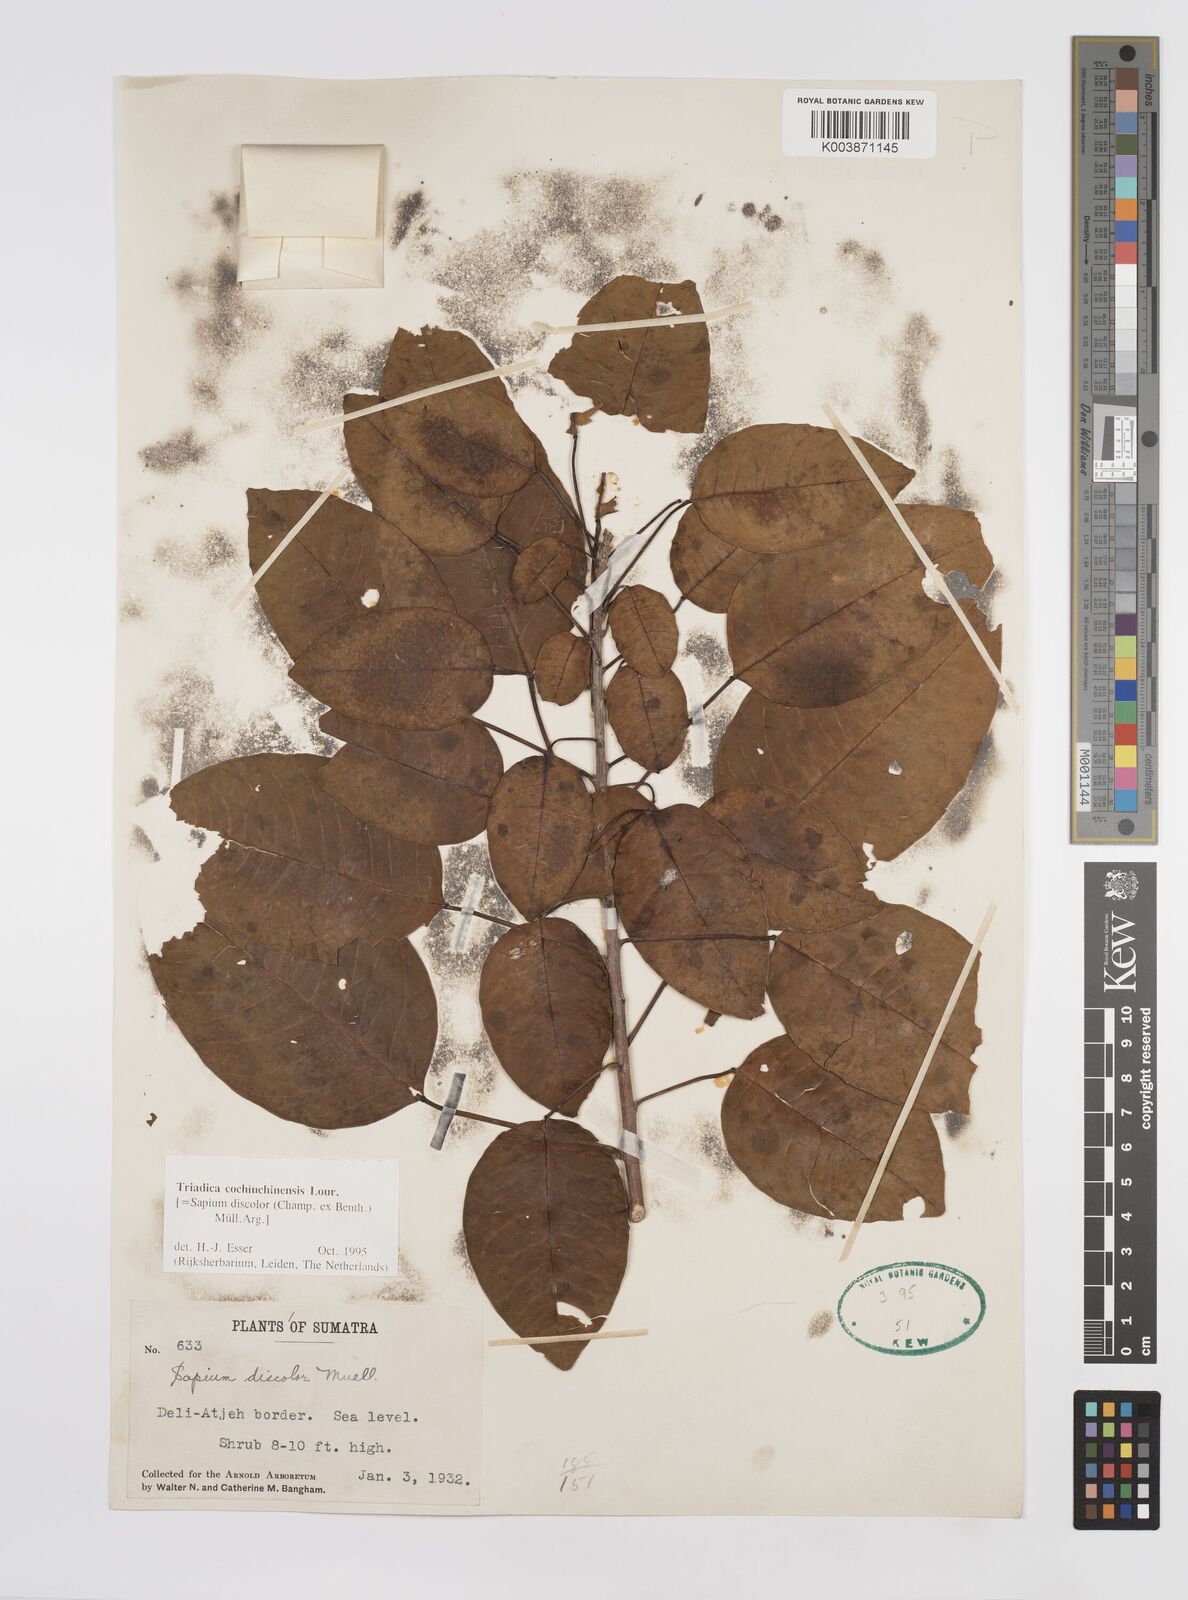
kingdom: Plantae
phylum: Tracheophyta
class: Magnoliopsida
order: Malpighiales
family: Euphorbiaceae
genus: Triadica
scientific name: Triadica cochinchinensis
